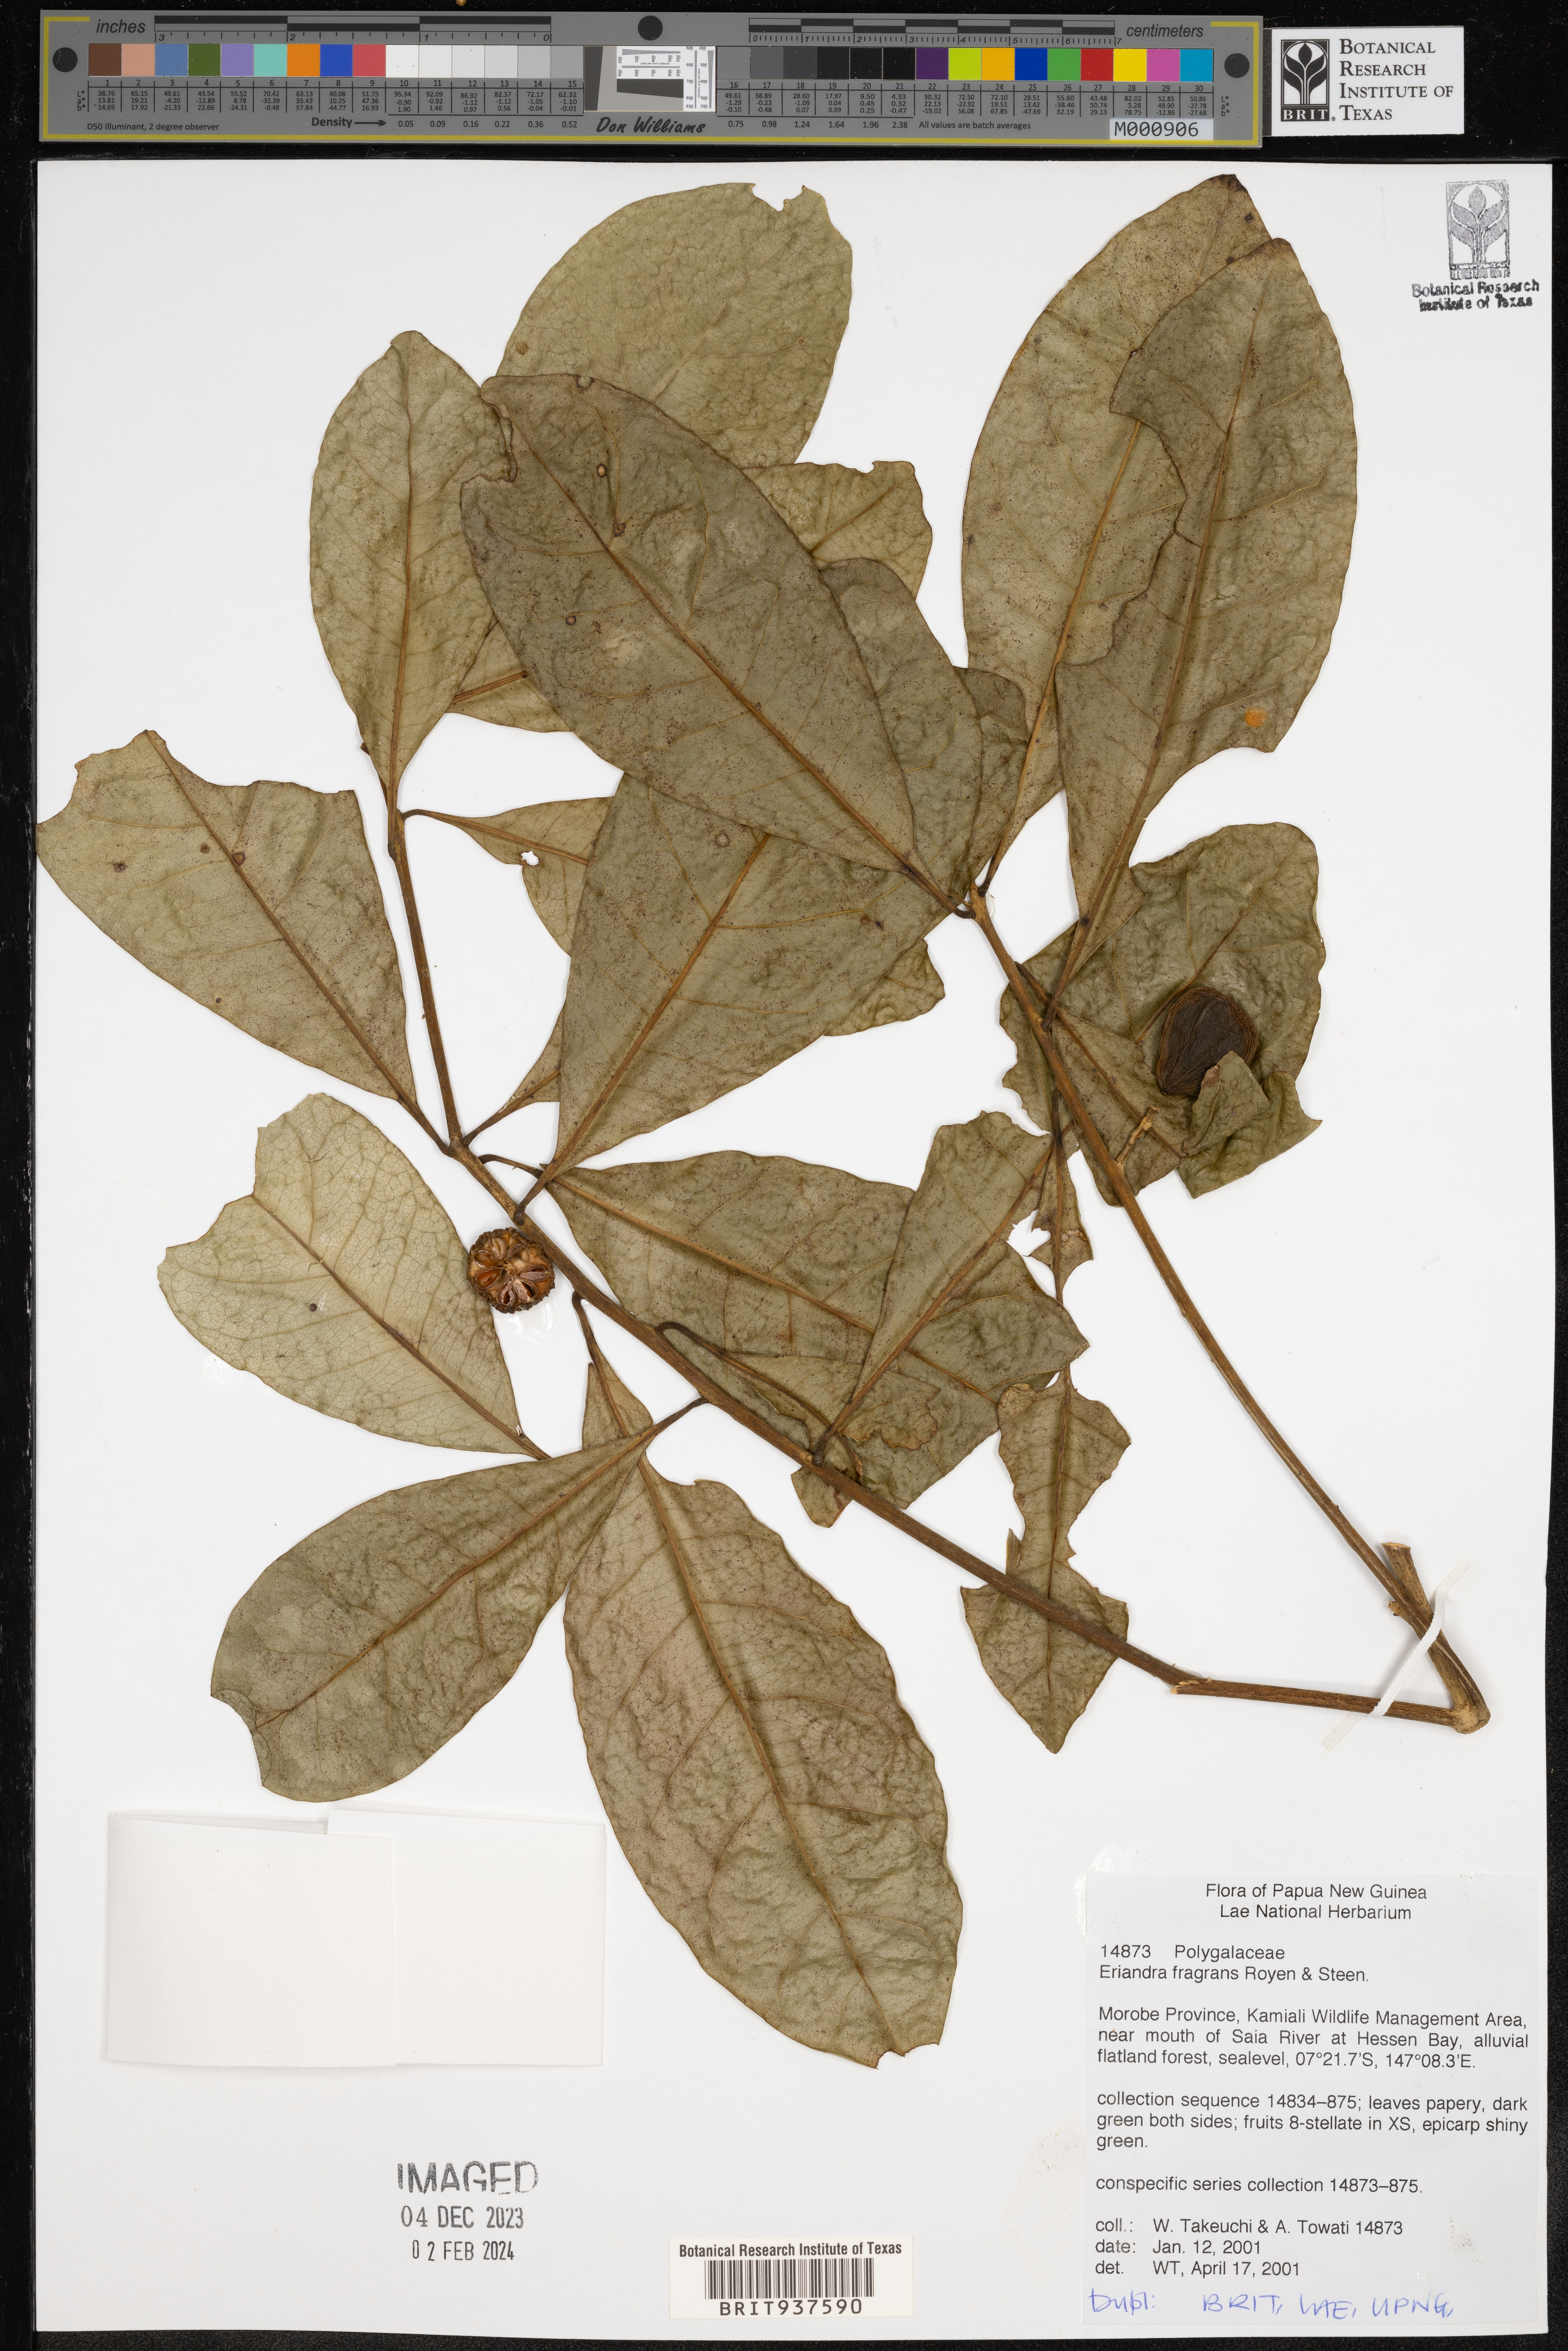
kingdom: Plantae
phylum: Tracheophyta
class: Magnoliopsida
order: Fabales
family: Polygalaceae
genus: Eriandra
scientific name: Eriandra
